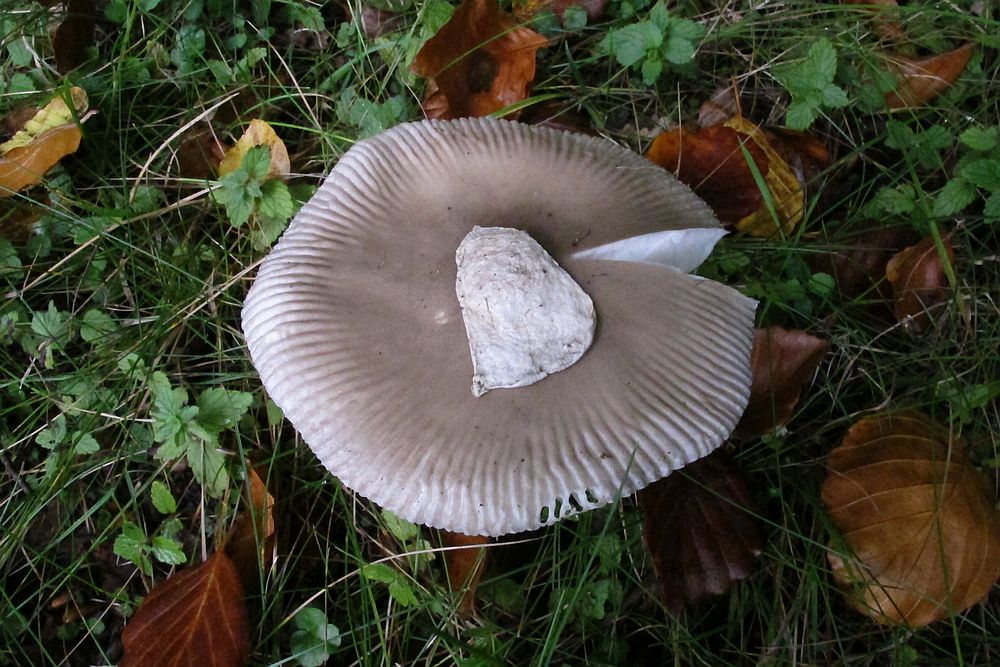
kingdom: Fungi
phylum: Basidiomycota
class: Agaricomycetes
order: Agaricales
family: Amanitaceae
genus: Amanita
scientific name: Amanita vaginata
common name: grå kam-fluesvamp
